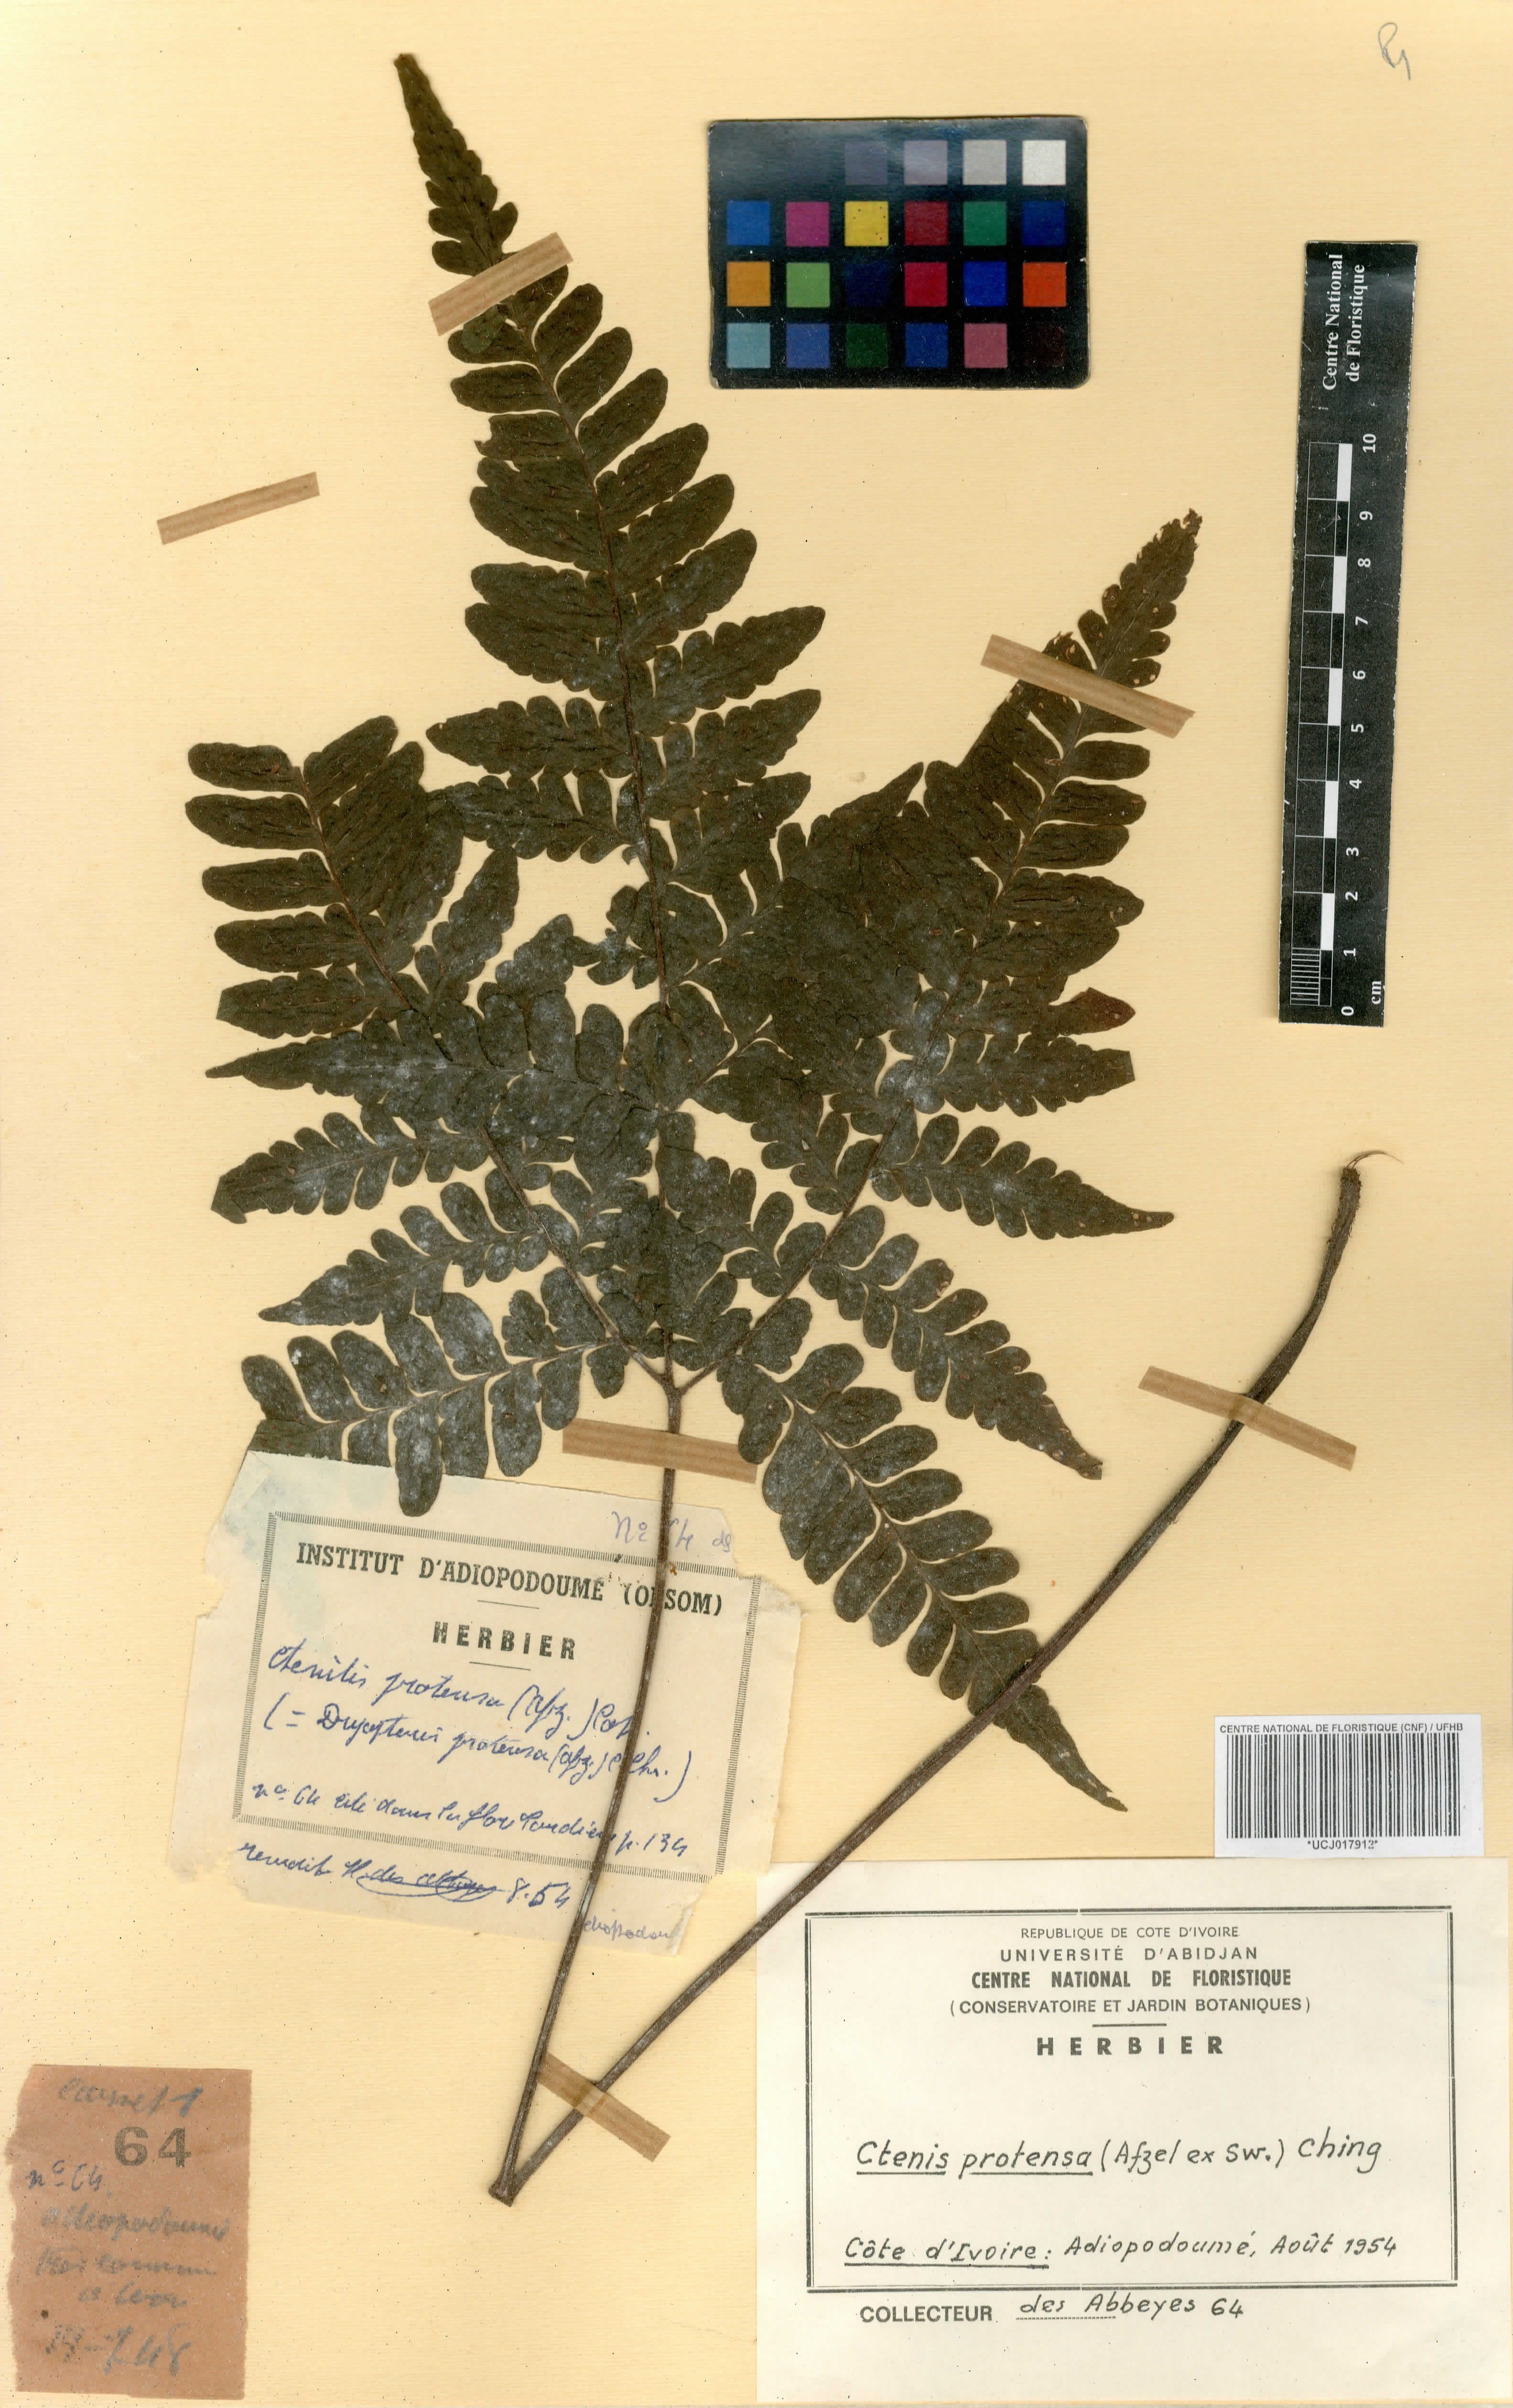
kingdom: Plantae
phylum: Tracheophyta
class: Polypodiopsida
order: Polypodiales
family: Tectariaceae
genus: Triplophyllum
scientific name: Triplophyllum protensum
